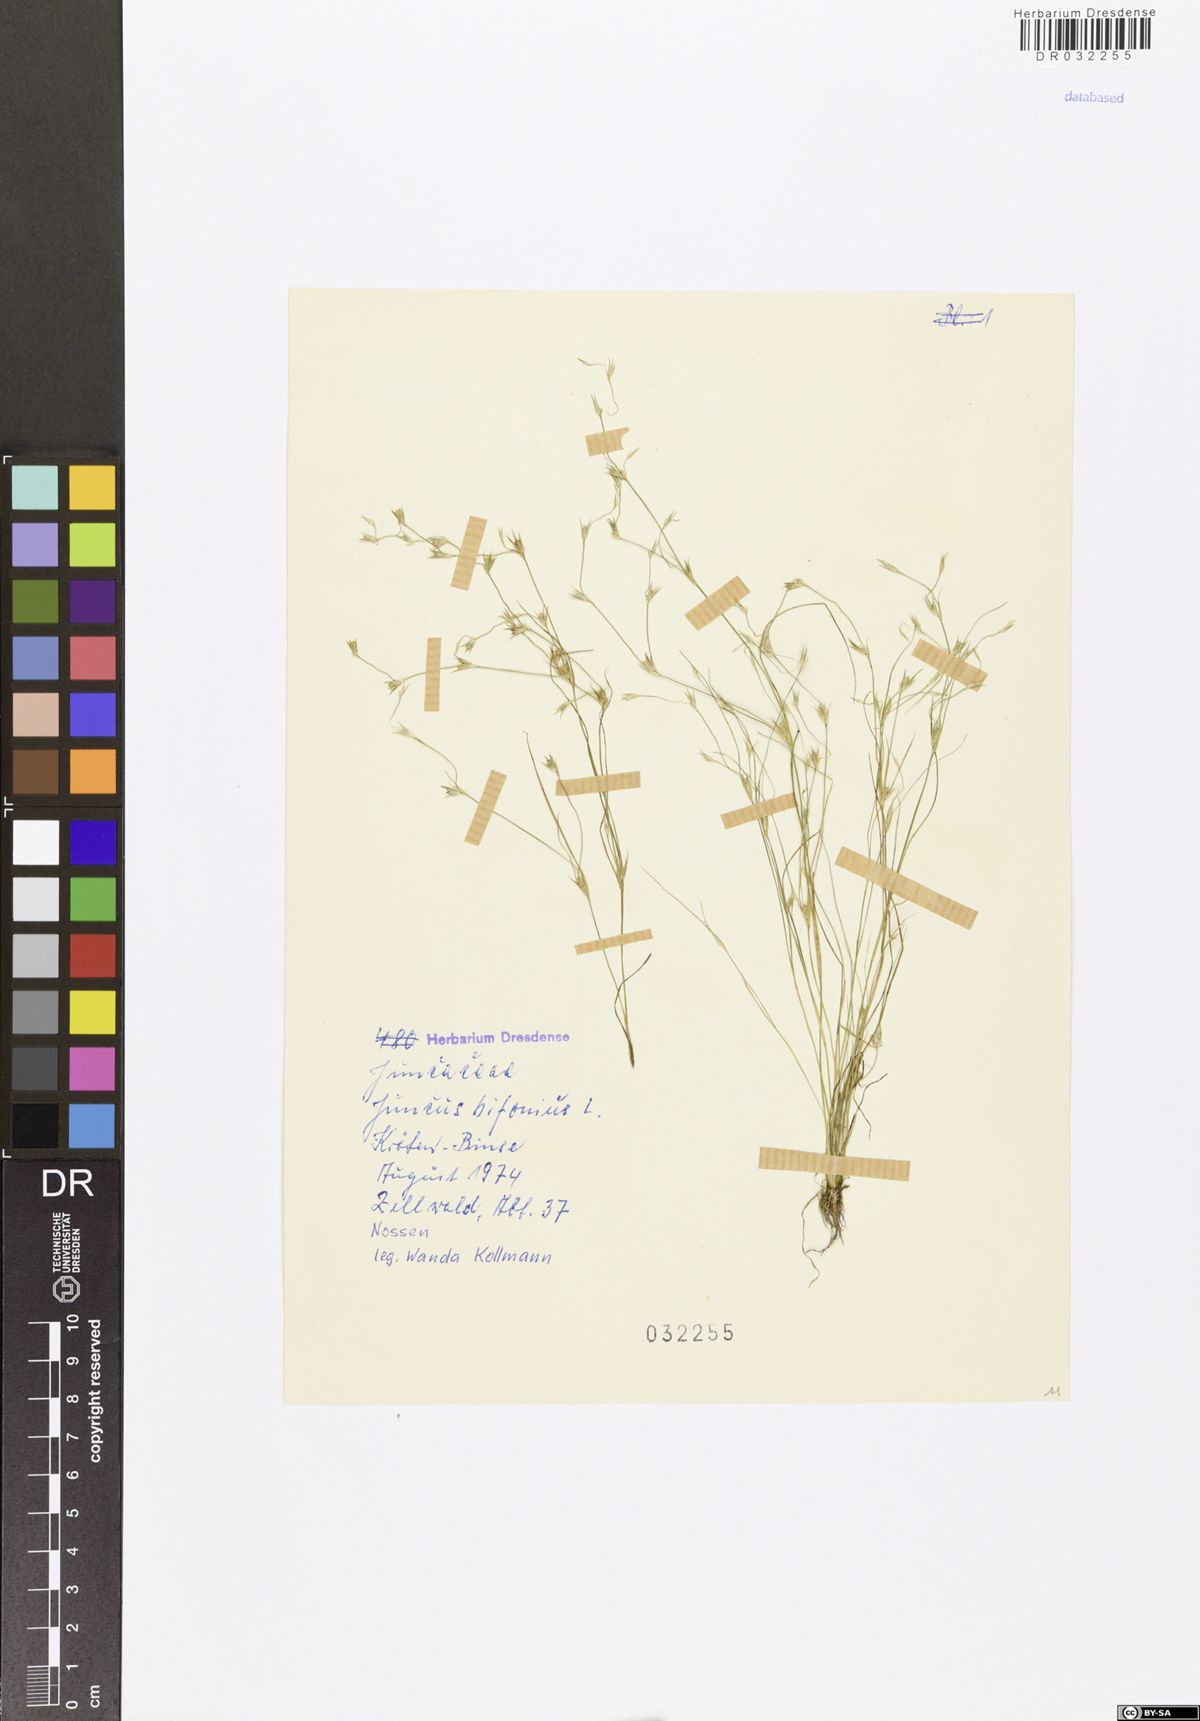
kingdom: Plantae
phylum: Tracheophyta
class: Liliopsida
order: Poales
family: Juncaceae
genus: Juncus
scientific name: Juncus bufonius
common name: Toad rush
